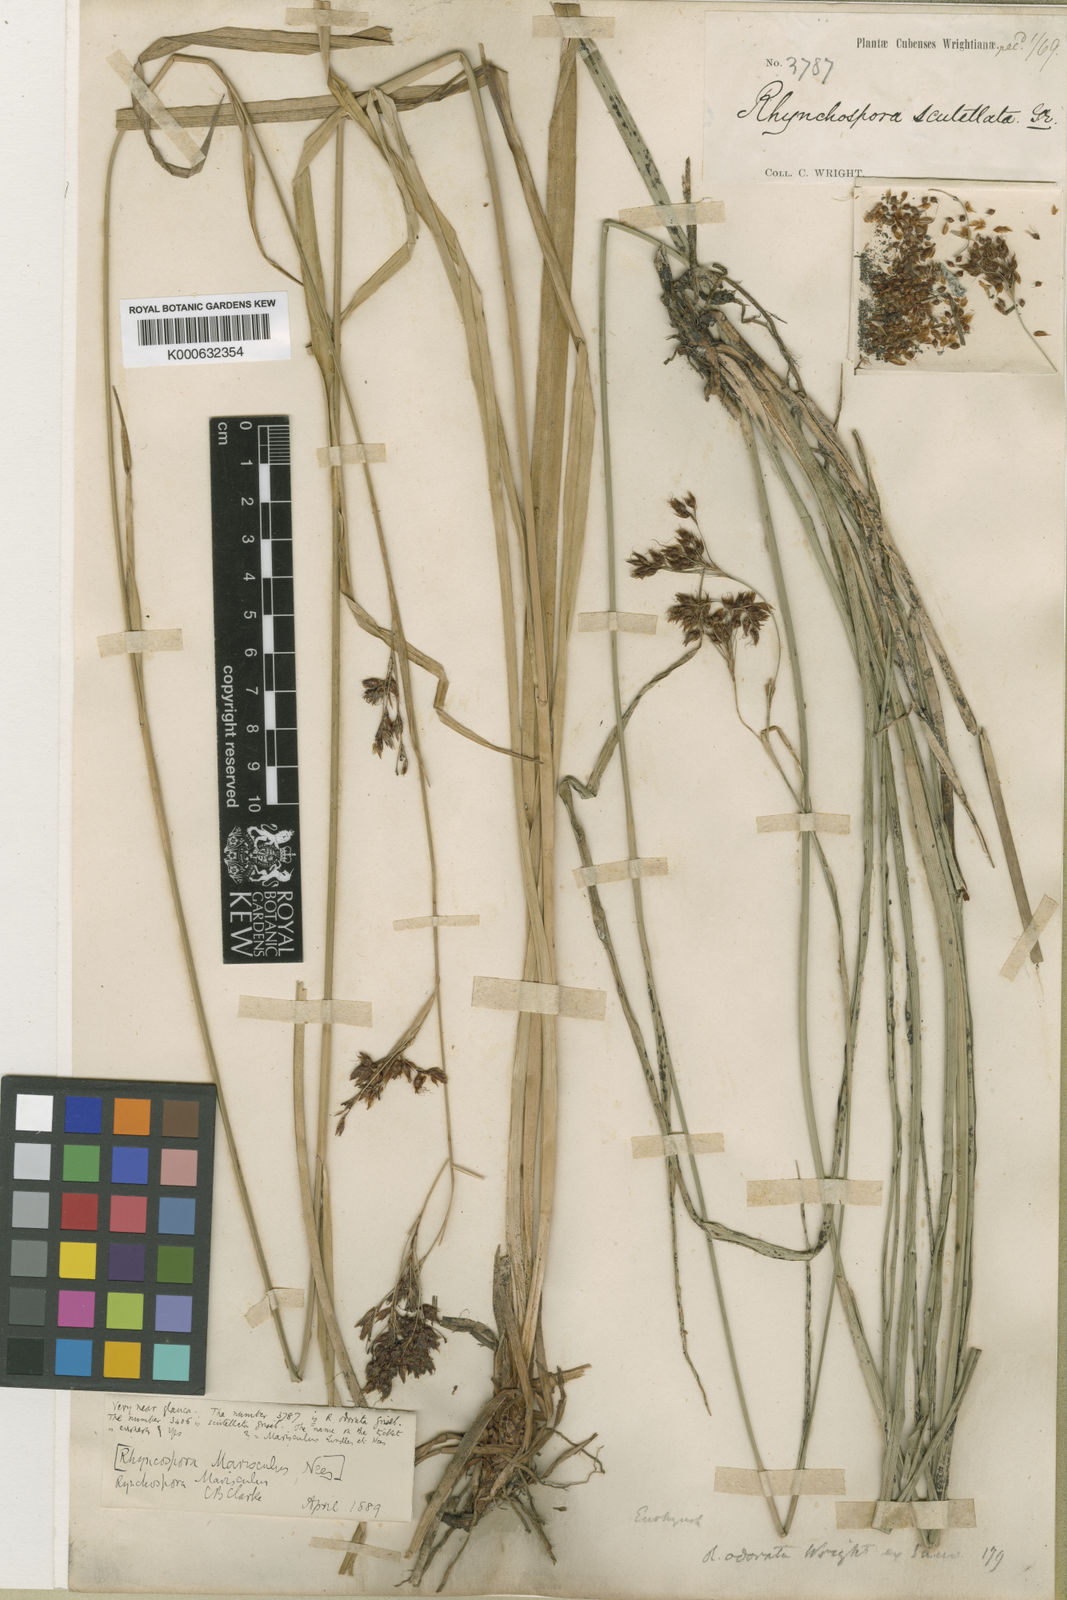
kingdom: Plantae
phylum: Tracheophyta
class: Liliopsida
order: Poales
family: Cyperaceae
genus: Rhynchospora
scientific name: Rhynchospora scutellata
